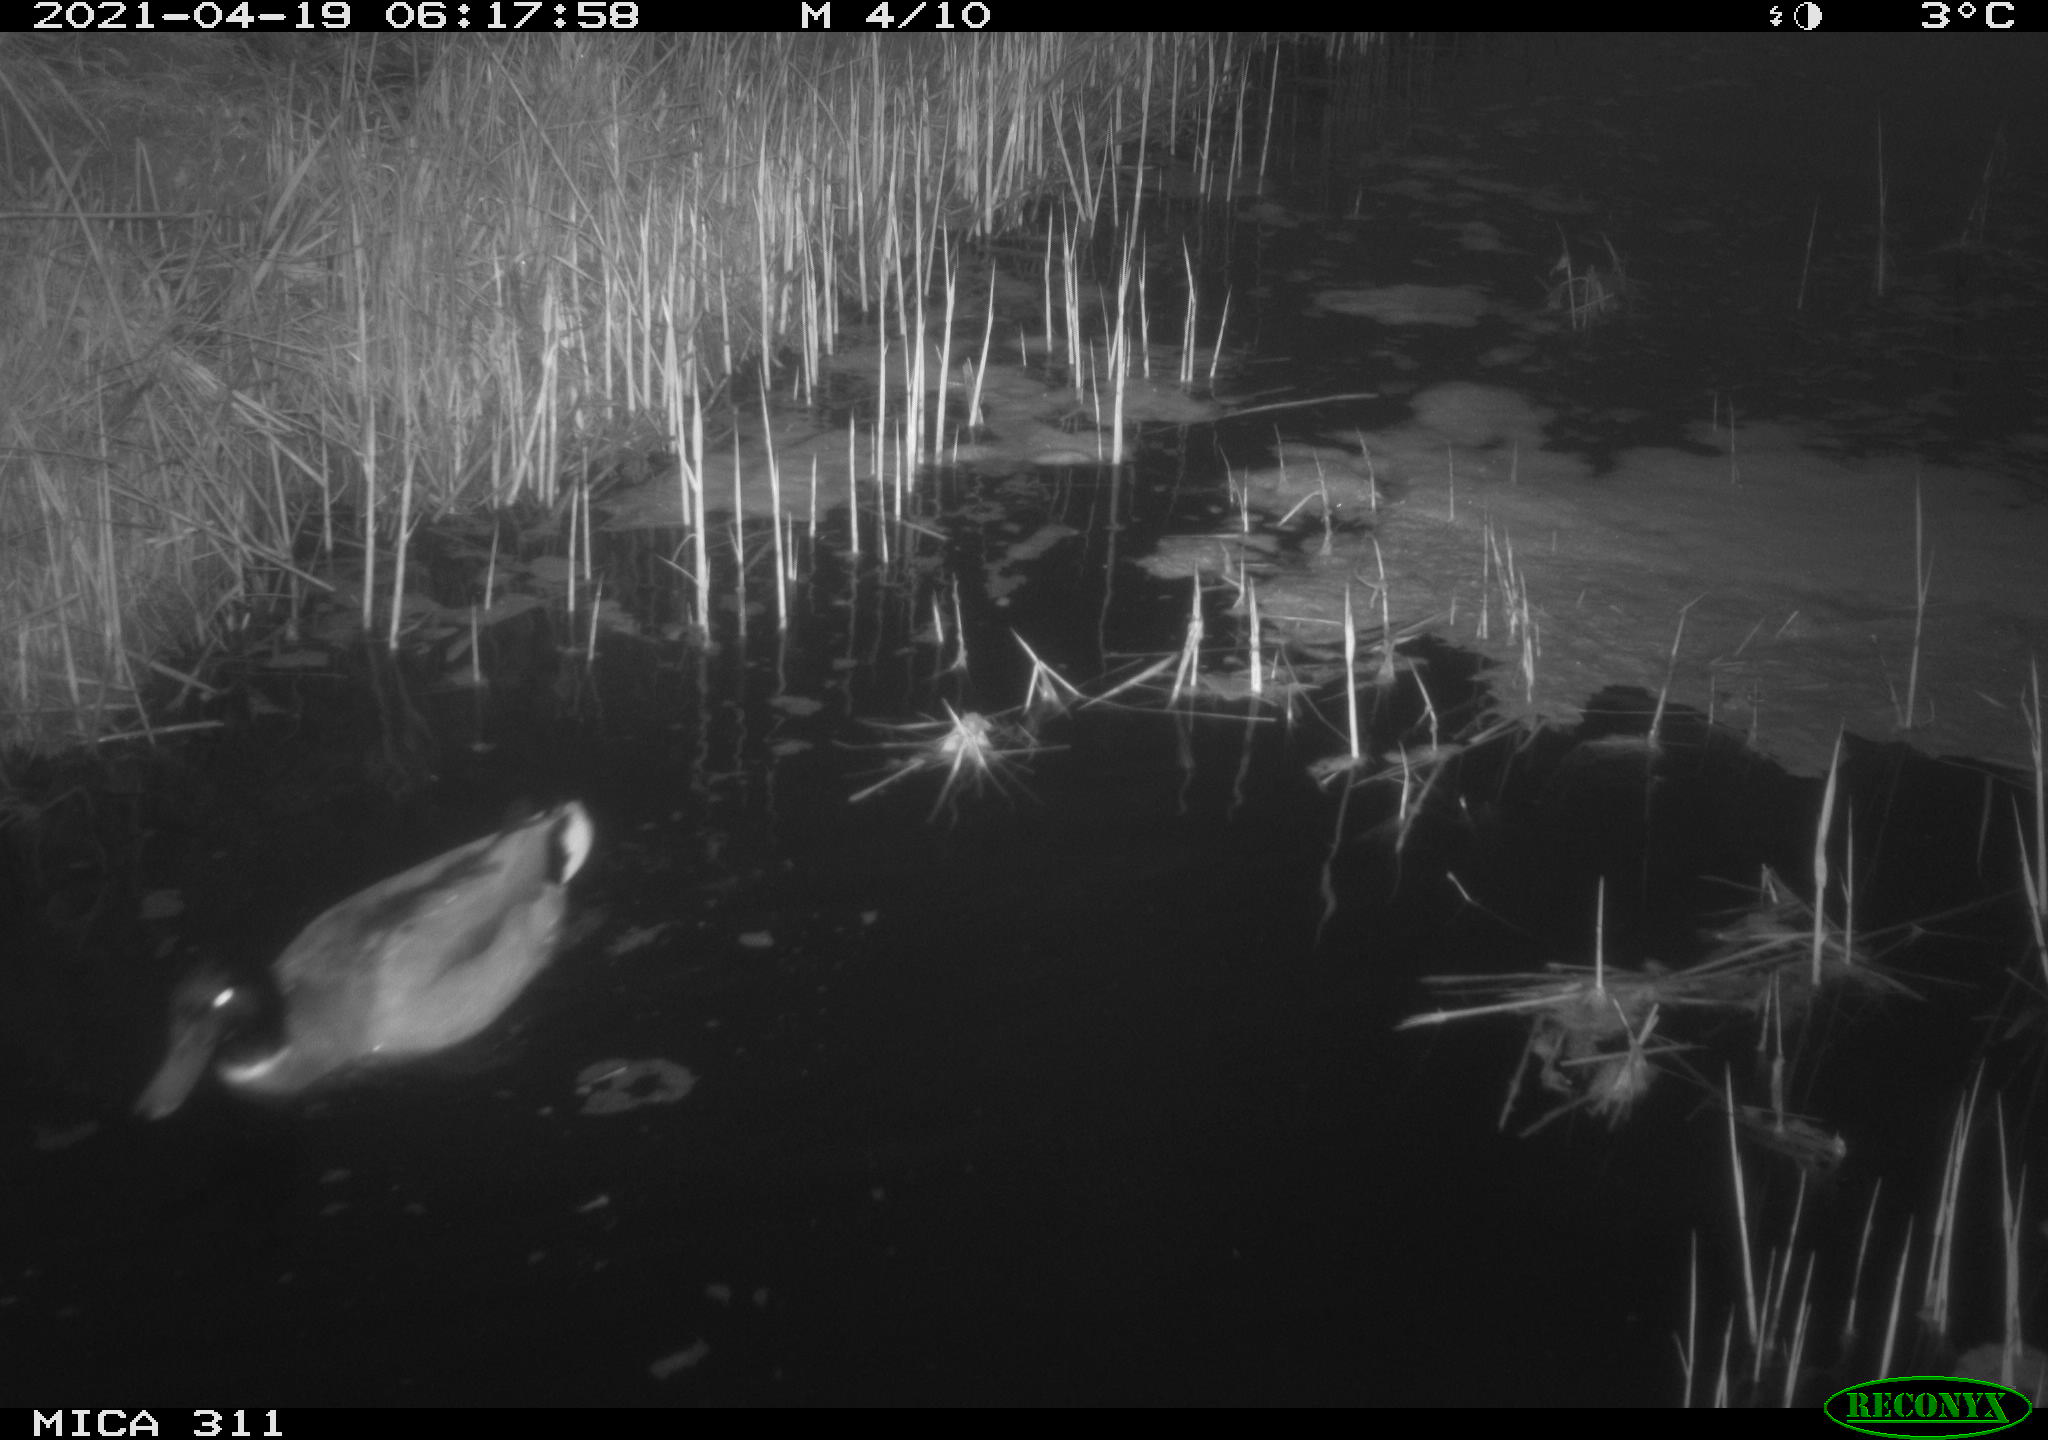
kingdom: Animalia
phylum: Chordata
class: Aves
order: Anseriformes
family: Anatidae
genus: Anas
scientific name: Anas platyrhynchos
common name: Mallard
